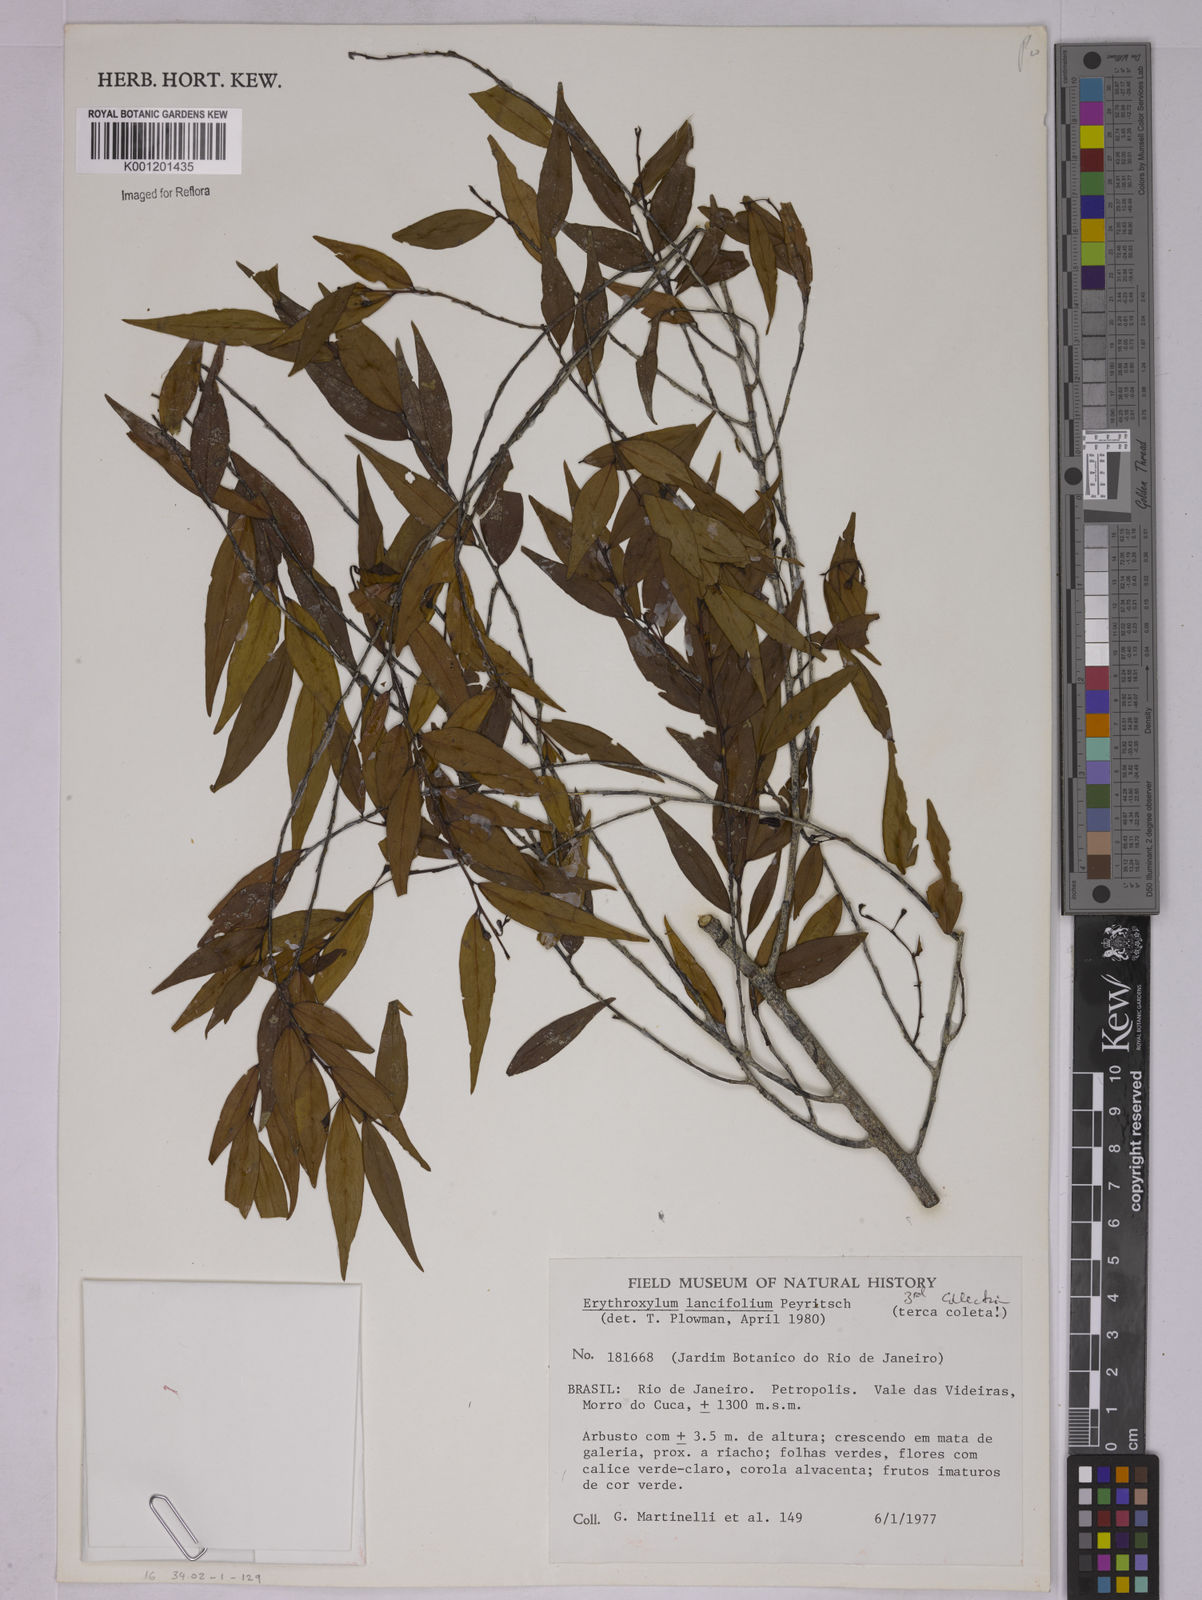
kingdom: Plantae
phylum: Tracheophyta
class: Magnoliopsida
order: Malpighiales
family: Erythroxylaceae
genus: Erythroxylum
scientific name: Erythroxylum lancifolium
